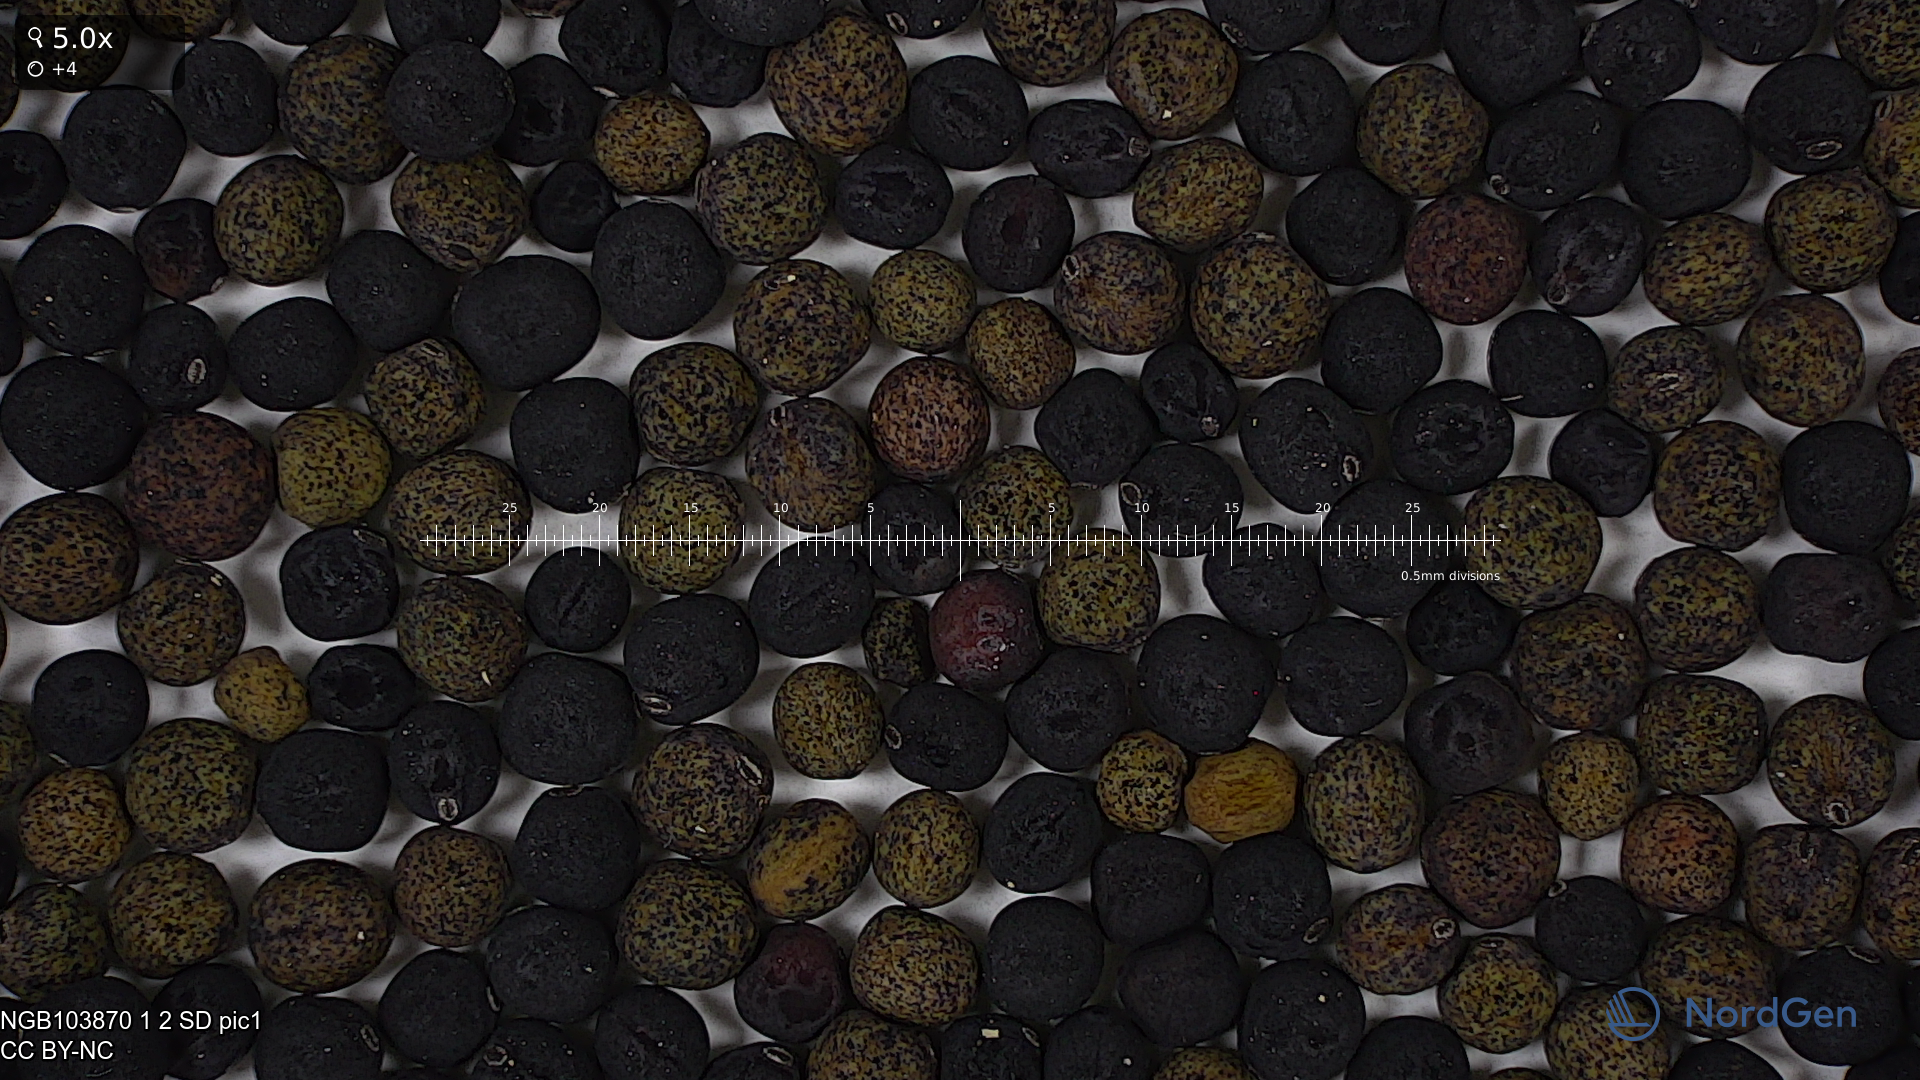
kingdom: Plantae
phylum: Tracheophyta
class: Magnoliopsida
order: Fabales
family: Fabaceae
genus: Lathyrus
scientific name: Lathyrus oleraceus
